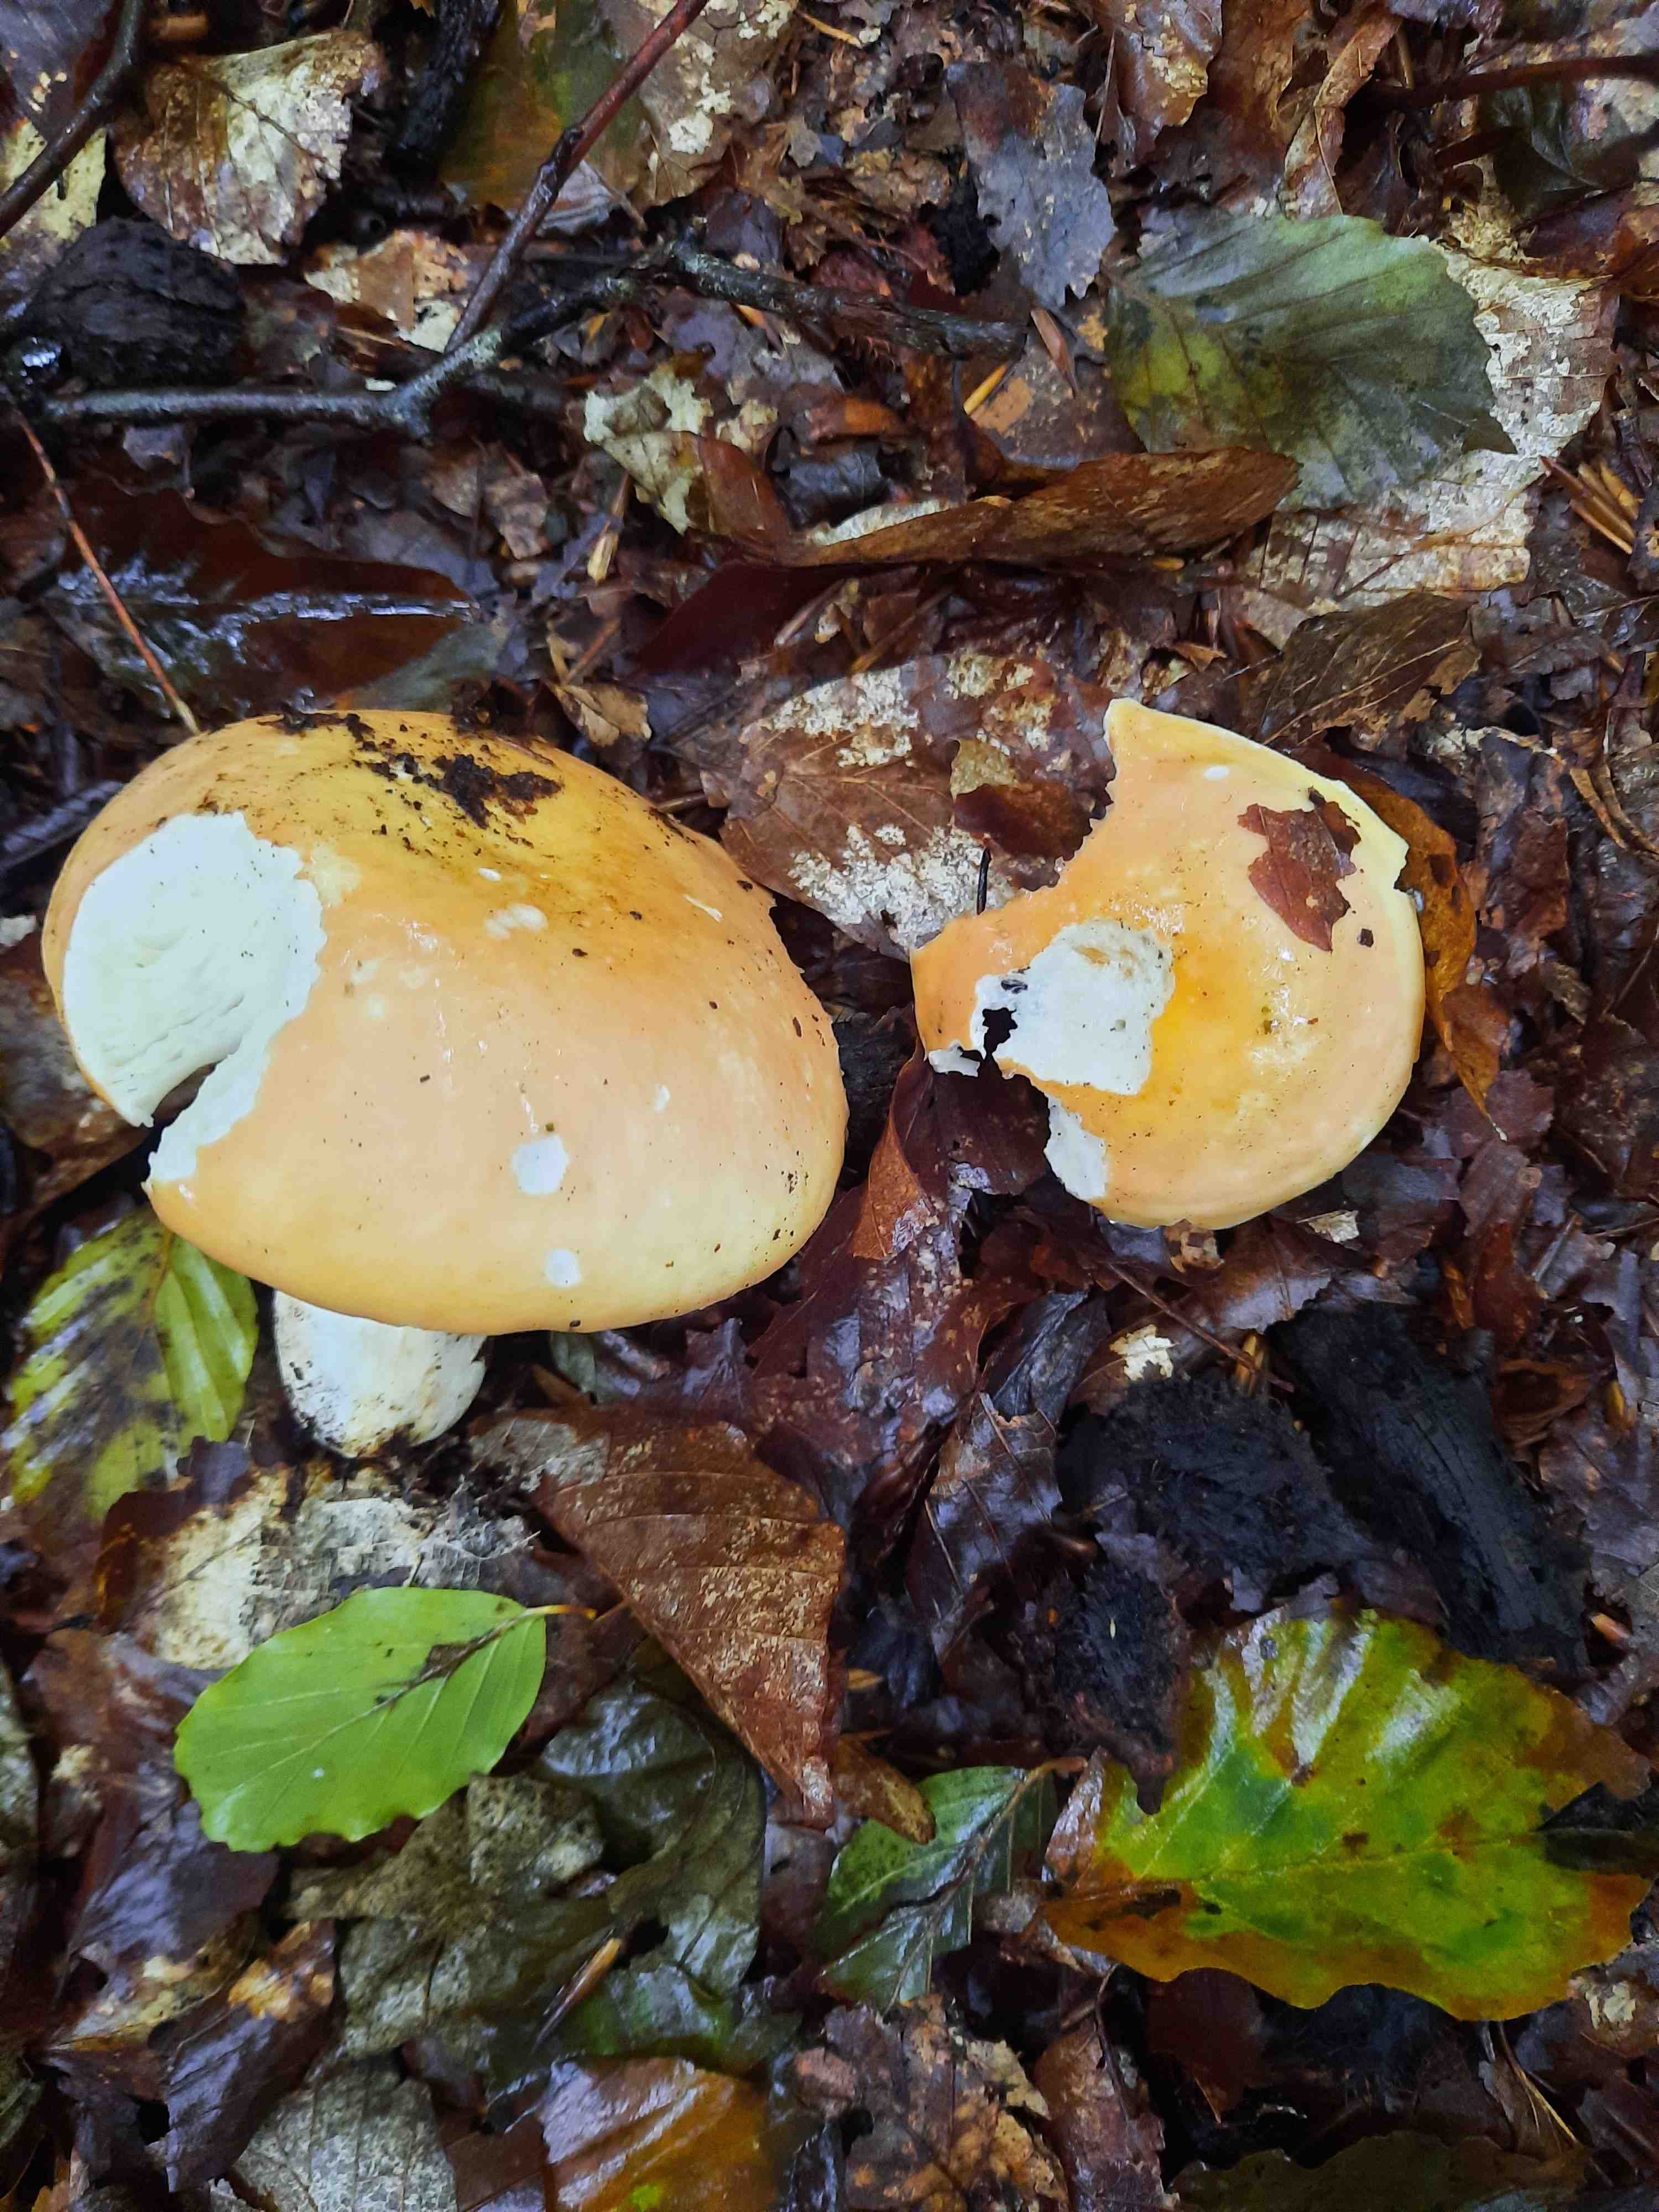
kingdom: Fungi
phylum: Basidiomycota
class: Agaricomycetes
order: Russulales
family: Russulaceae
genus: Russula
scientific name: Russula
